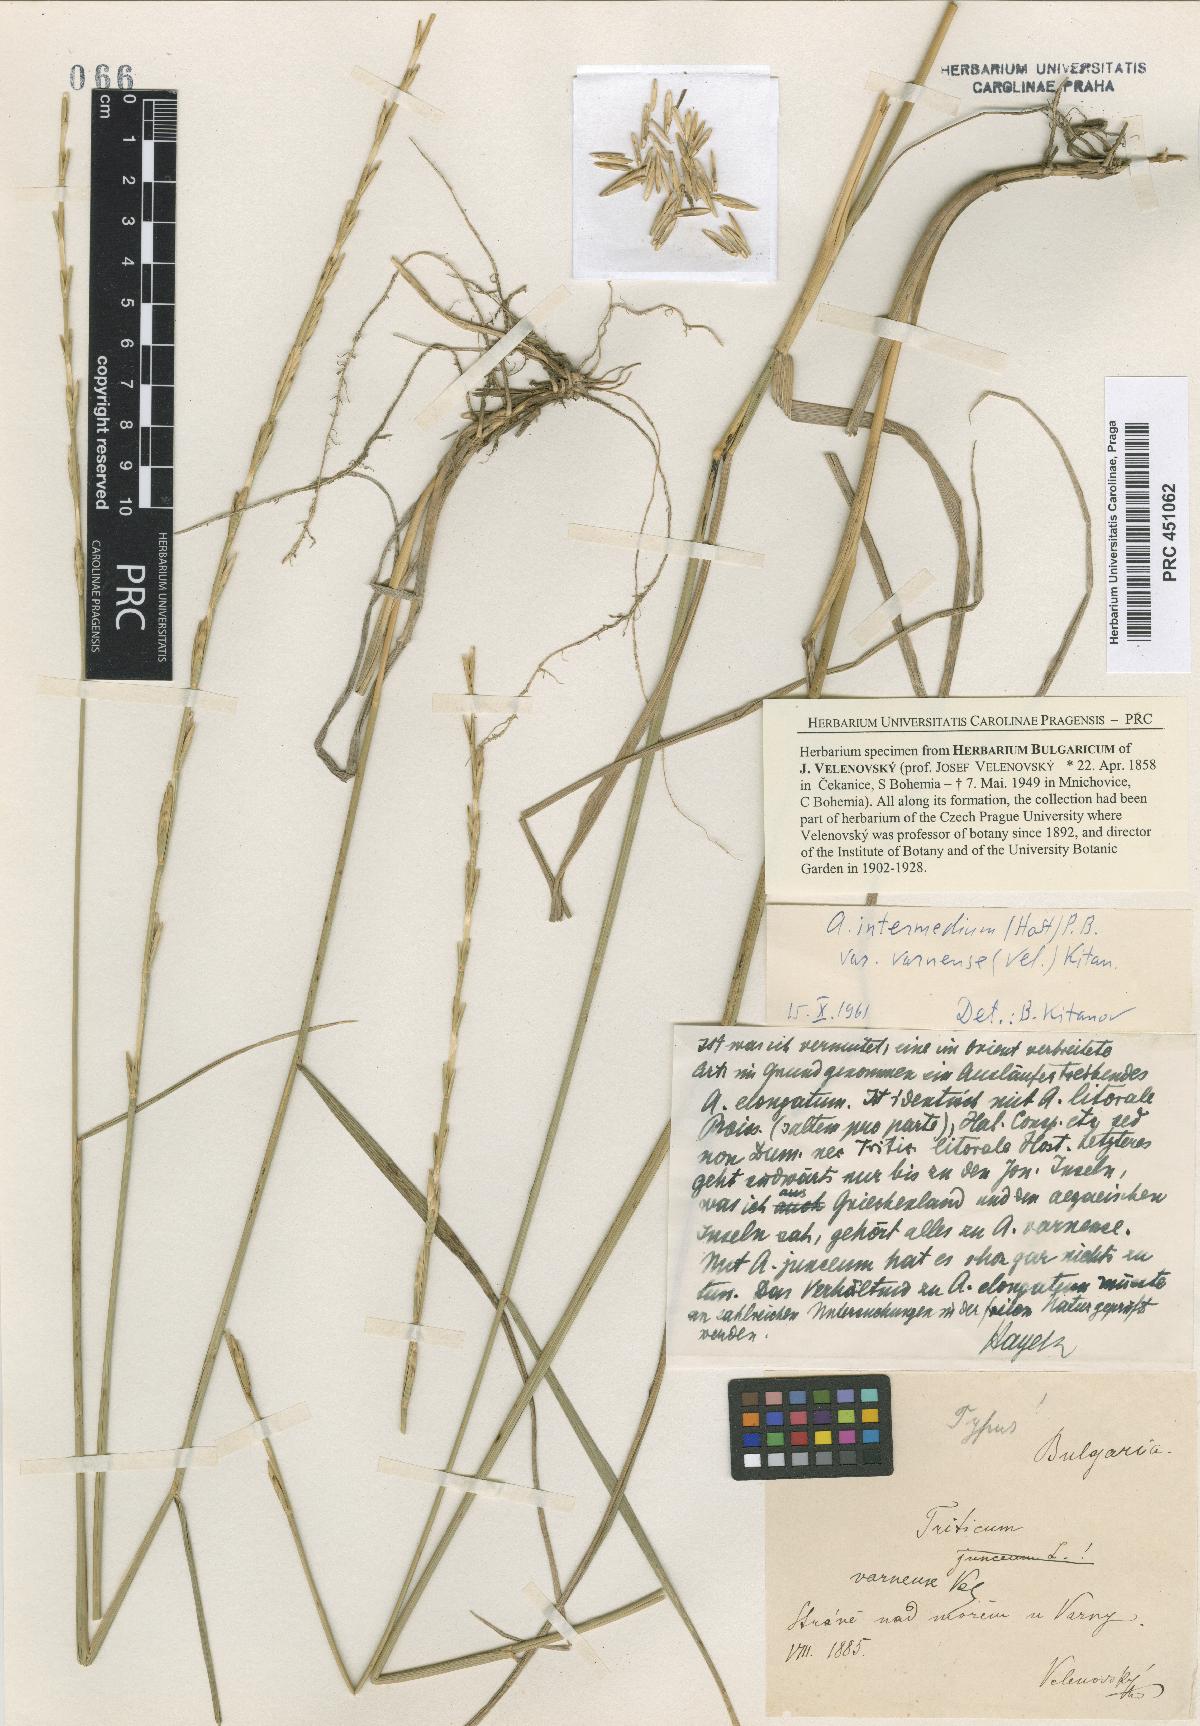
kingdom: Plantae
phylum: Tracheophyta
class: Liliopsida
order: Poales
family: Poaceae
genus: Thinopyrum
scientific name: Thinopyrum varnense
